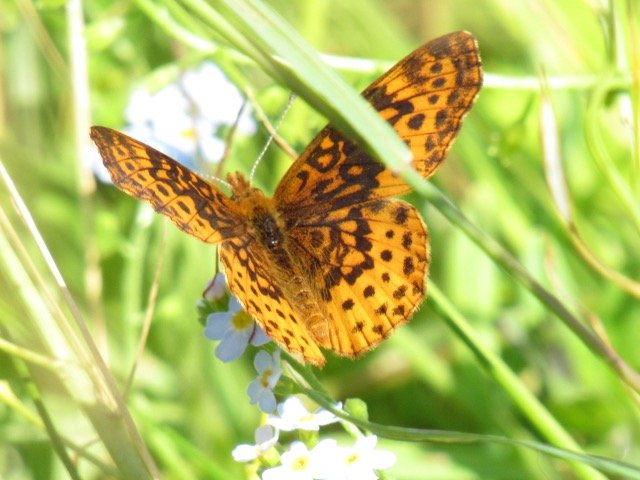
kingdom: Animalia
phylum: Arthropoda
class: Insecta
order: Lepidoptera
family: Nymphalidae
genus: Clossiana
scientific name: Clossiana toddi
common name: Meadow Fritillary
